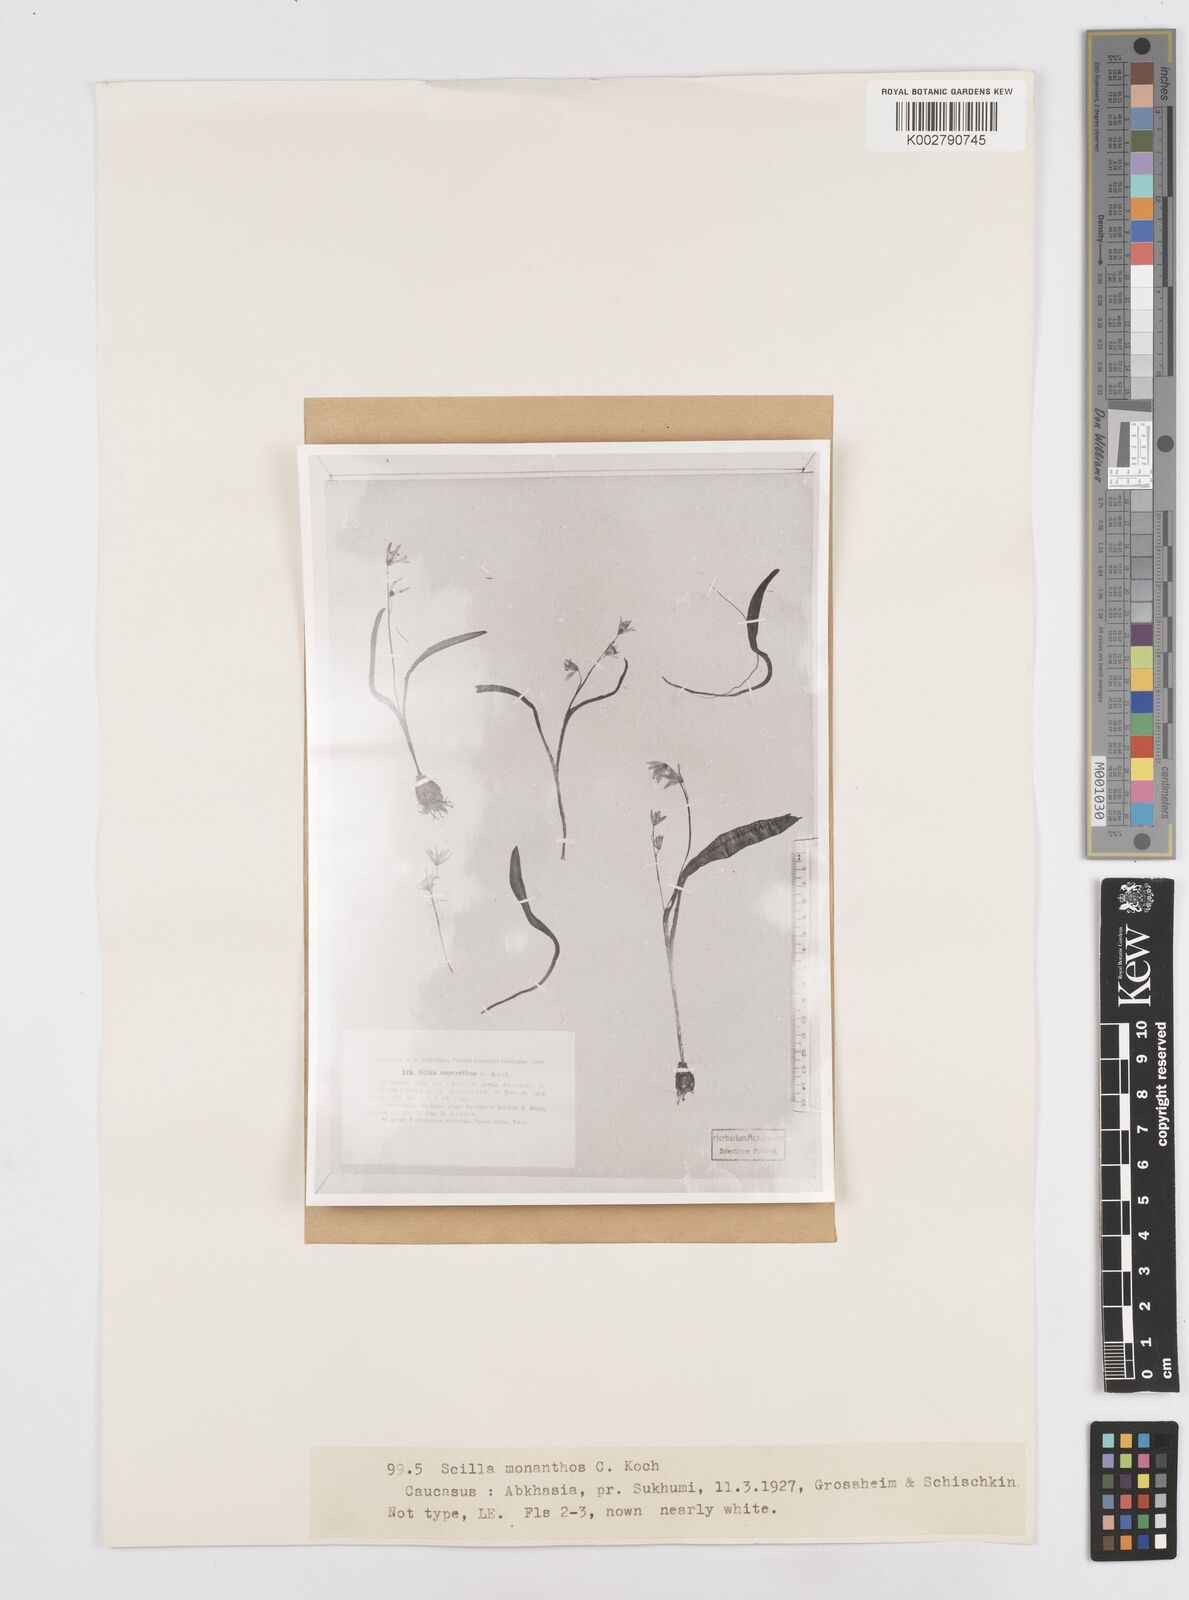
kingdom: Plantae
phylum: Tracheophyta
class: Liliopsida
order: Asparagales
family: Asparagaceae
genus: Scilla
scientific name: Scilla monanthos
